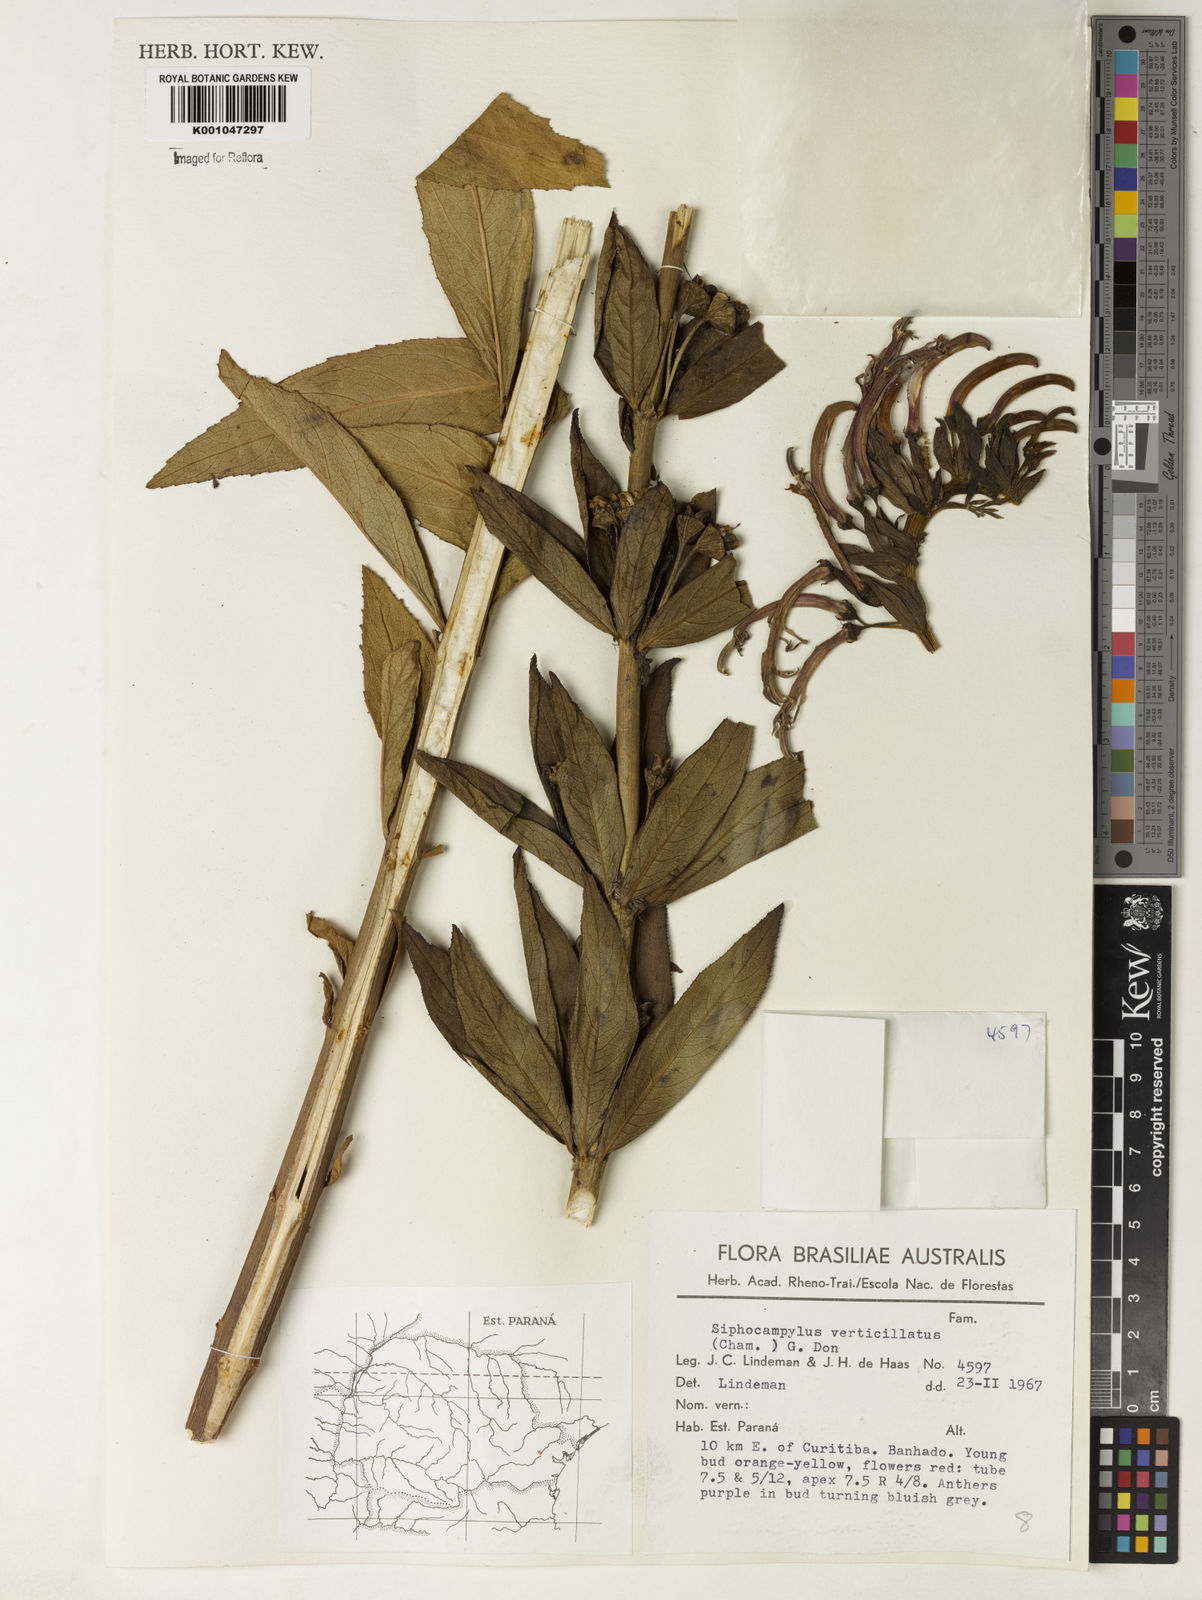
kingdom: Plantae
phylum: Tracheophyta
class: Magnoliopsida
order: Asterales
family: Campanulaceae
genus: Siphocampylus
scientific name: Siphocampylus verticillatus
